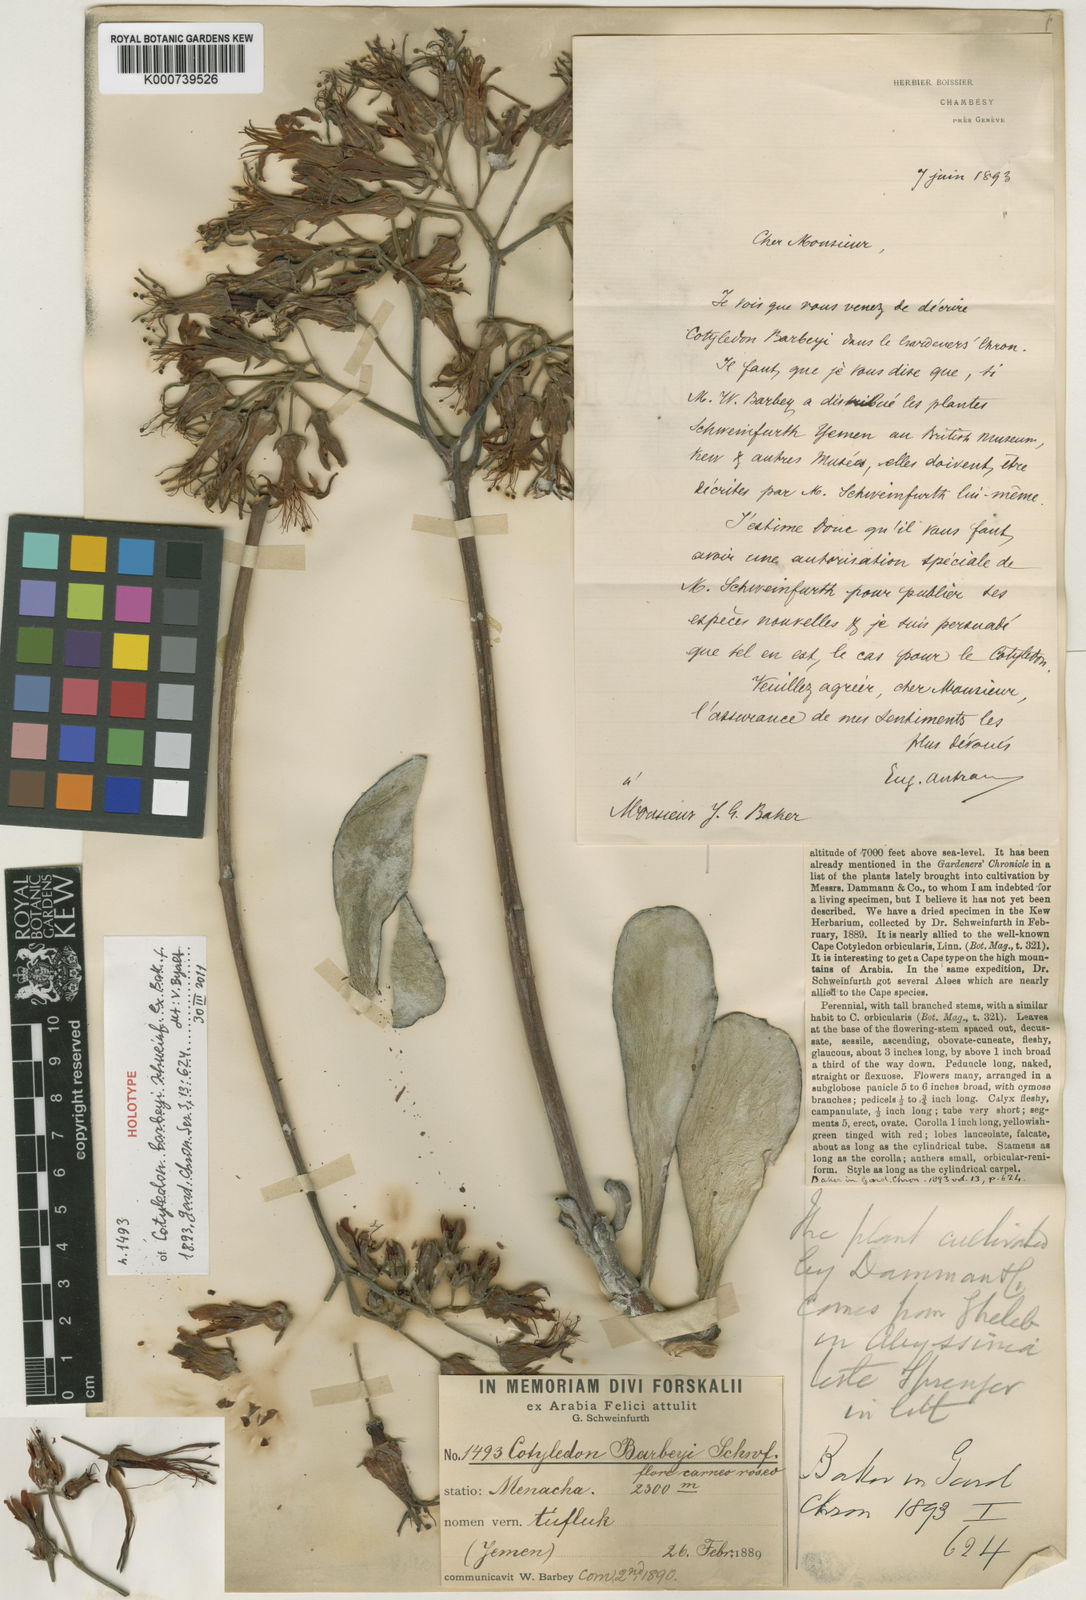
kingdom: Plantae
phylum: Tracheophyta
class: Magnoliopsida
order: Saxifragales
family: Crassulaceae
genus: Cotyledon
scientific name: Cotyledon
